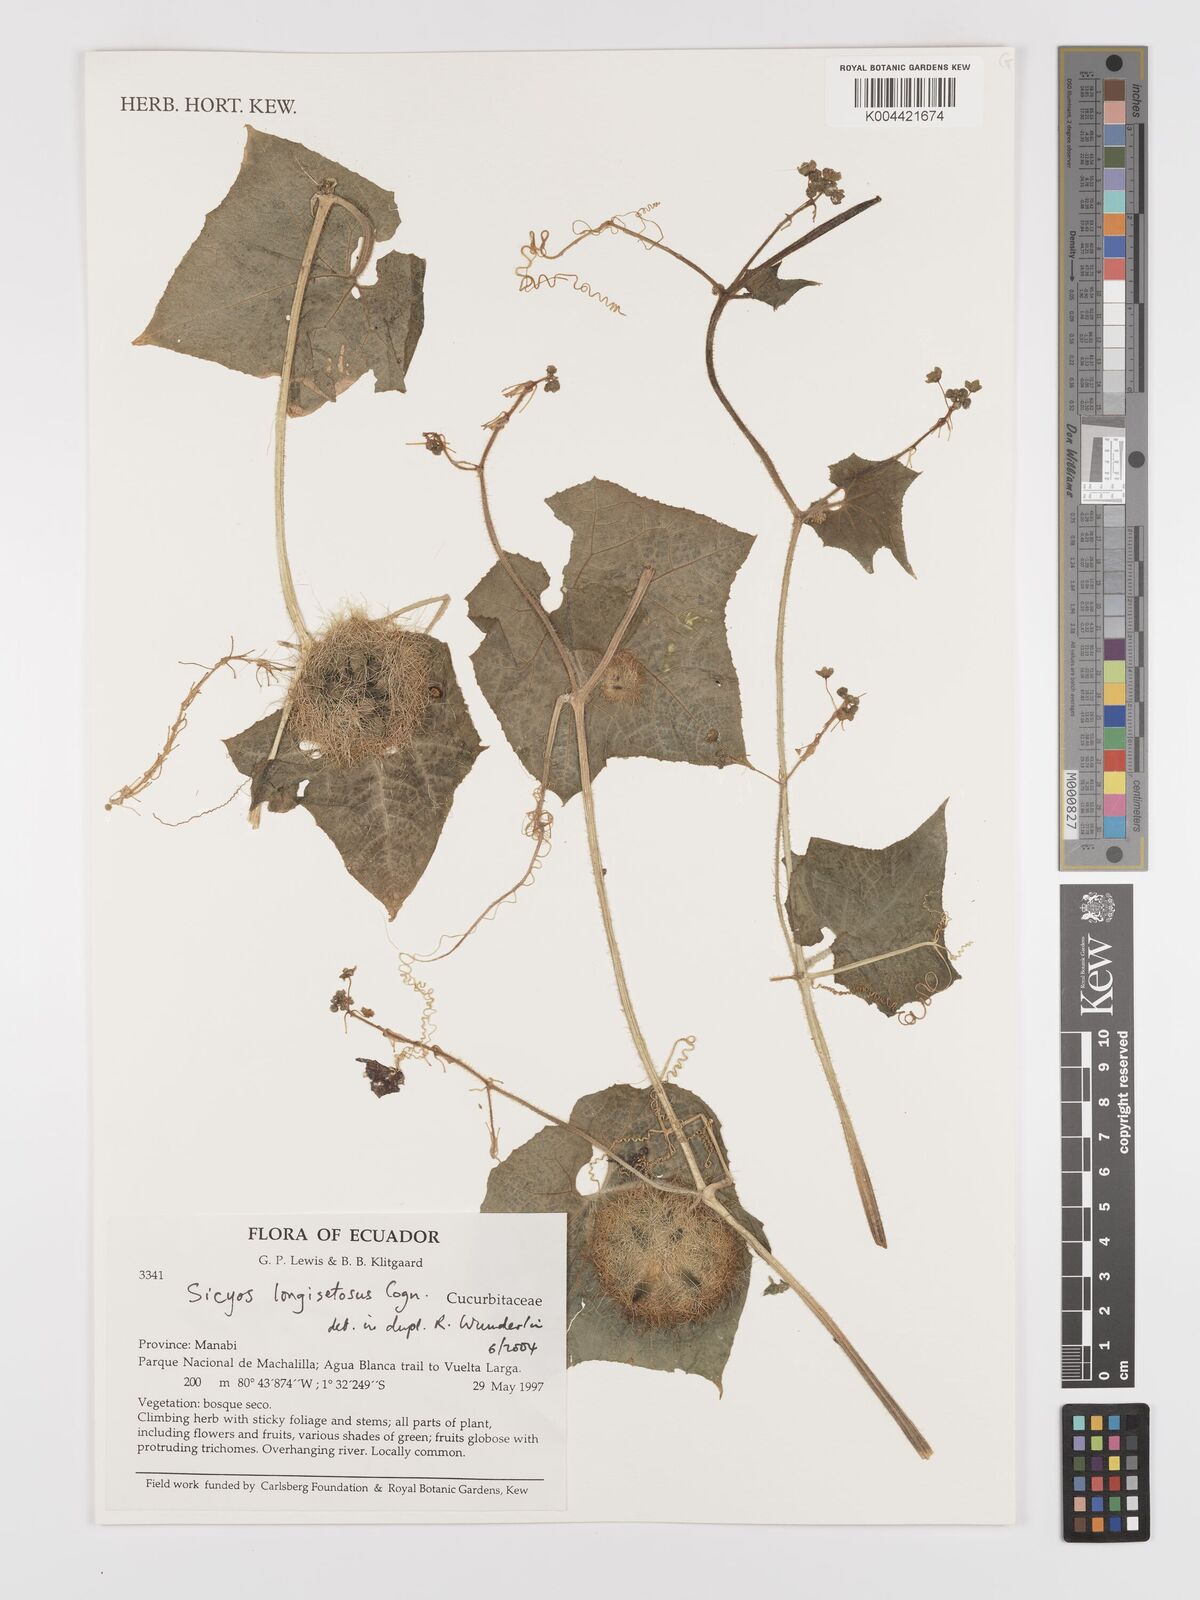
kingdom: Plantae
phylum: Tracheophyta
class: Magnoliopsida
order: Cucurbitales
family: Cucurbitaceae
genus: Sicyos
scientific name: Sicyos longisetosus
